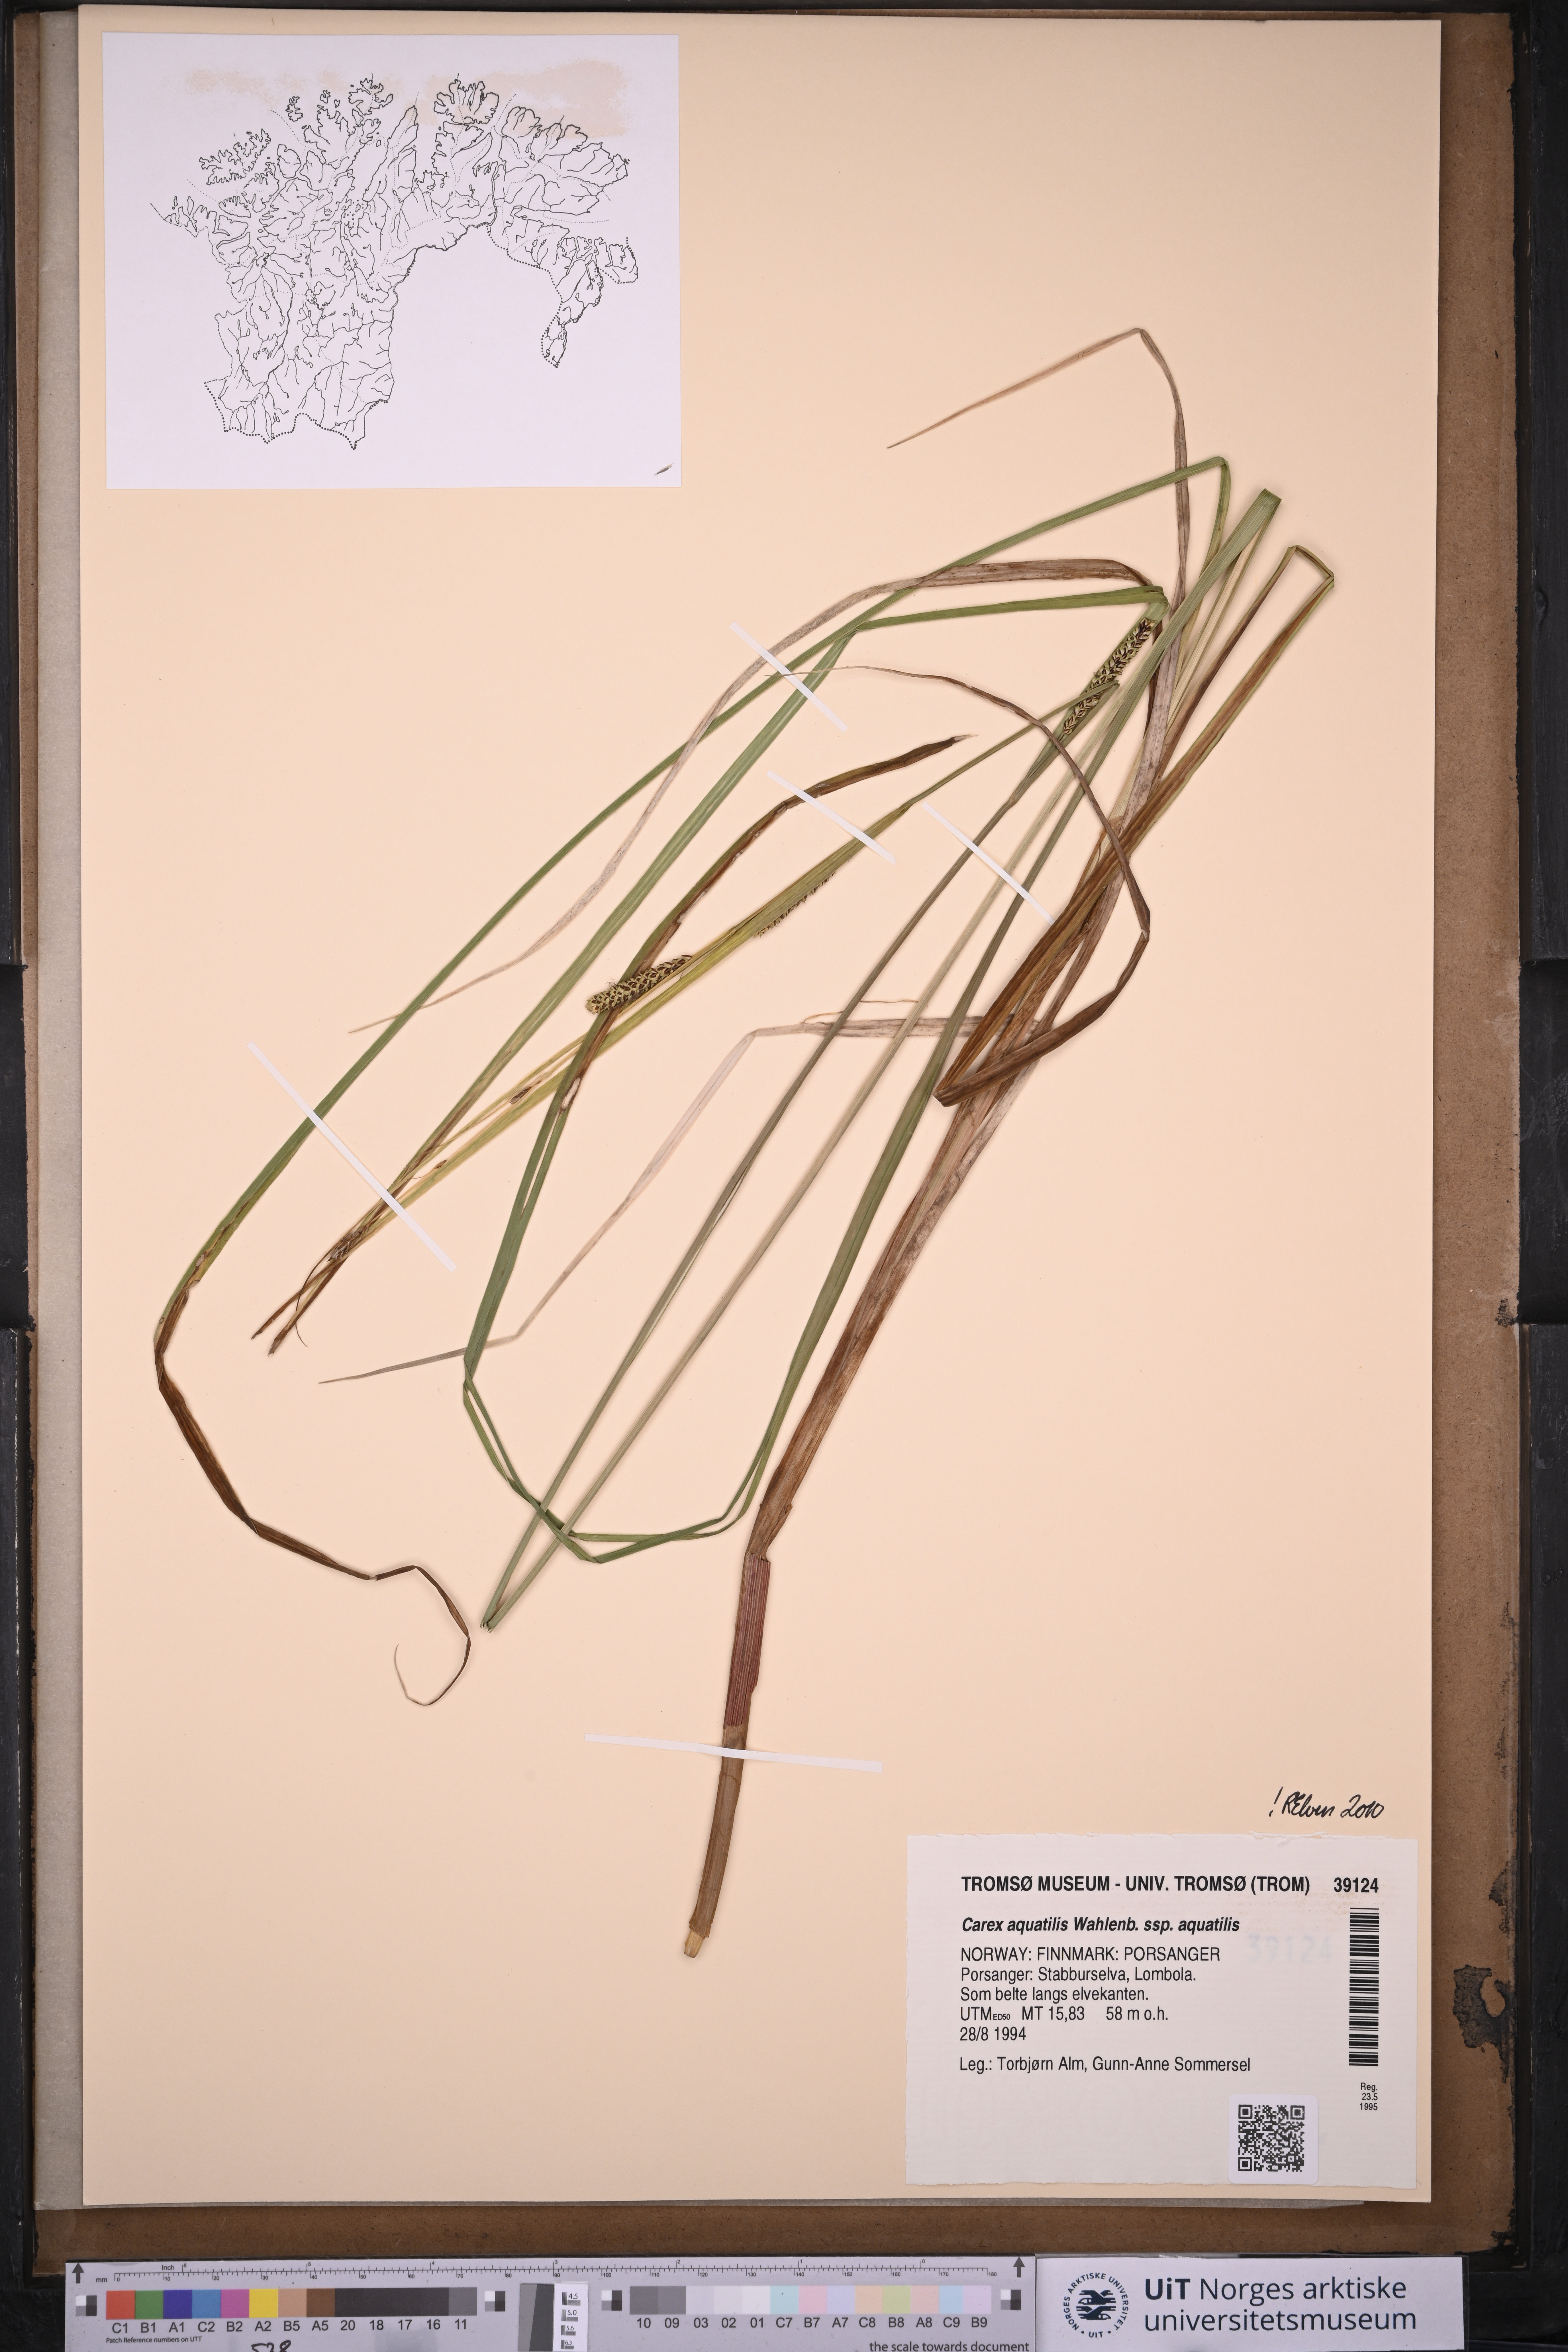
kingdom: Plantae
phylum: Tracheophyta
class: Liliopsida
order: Poales
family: Cyperaceae
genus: Carex
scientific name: Carex aquatilis
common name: Water sedge
